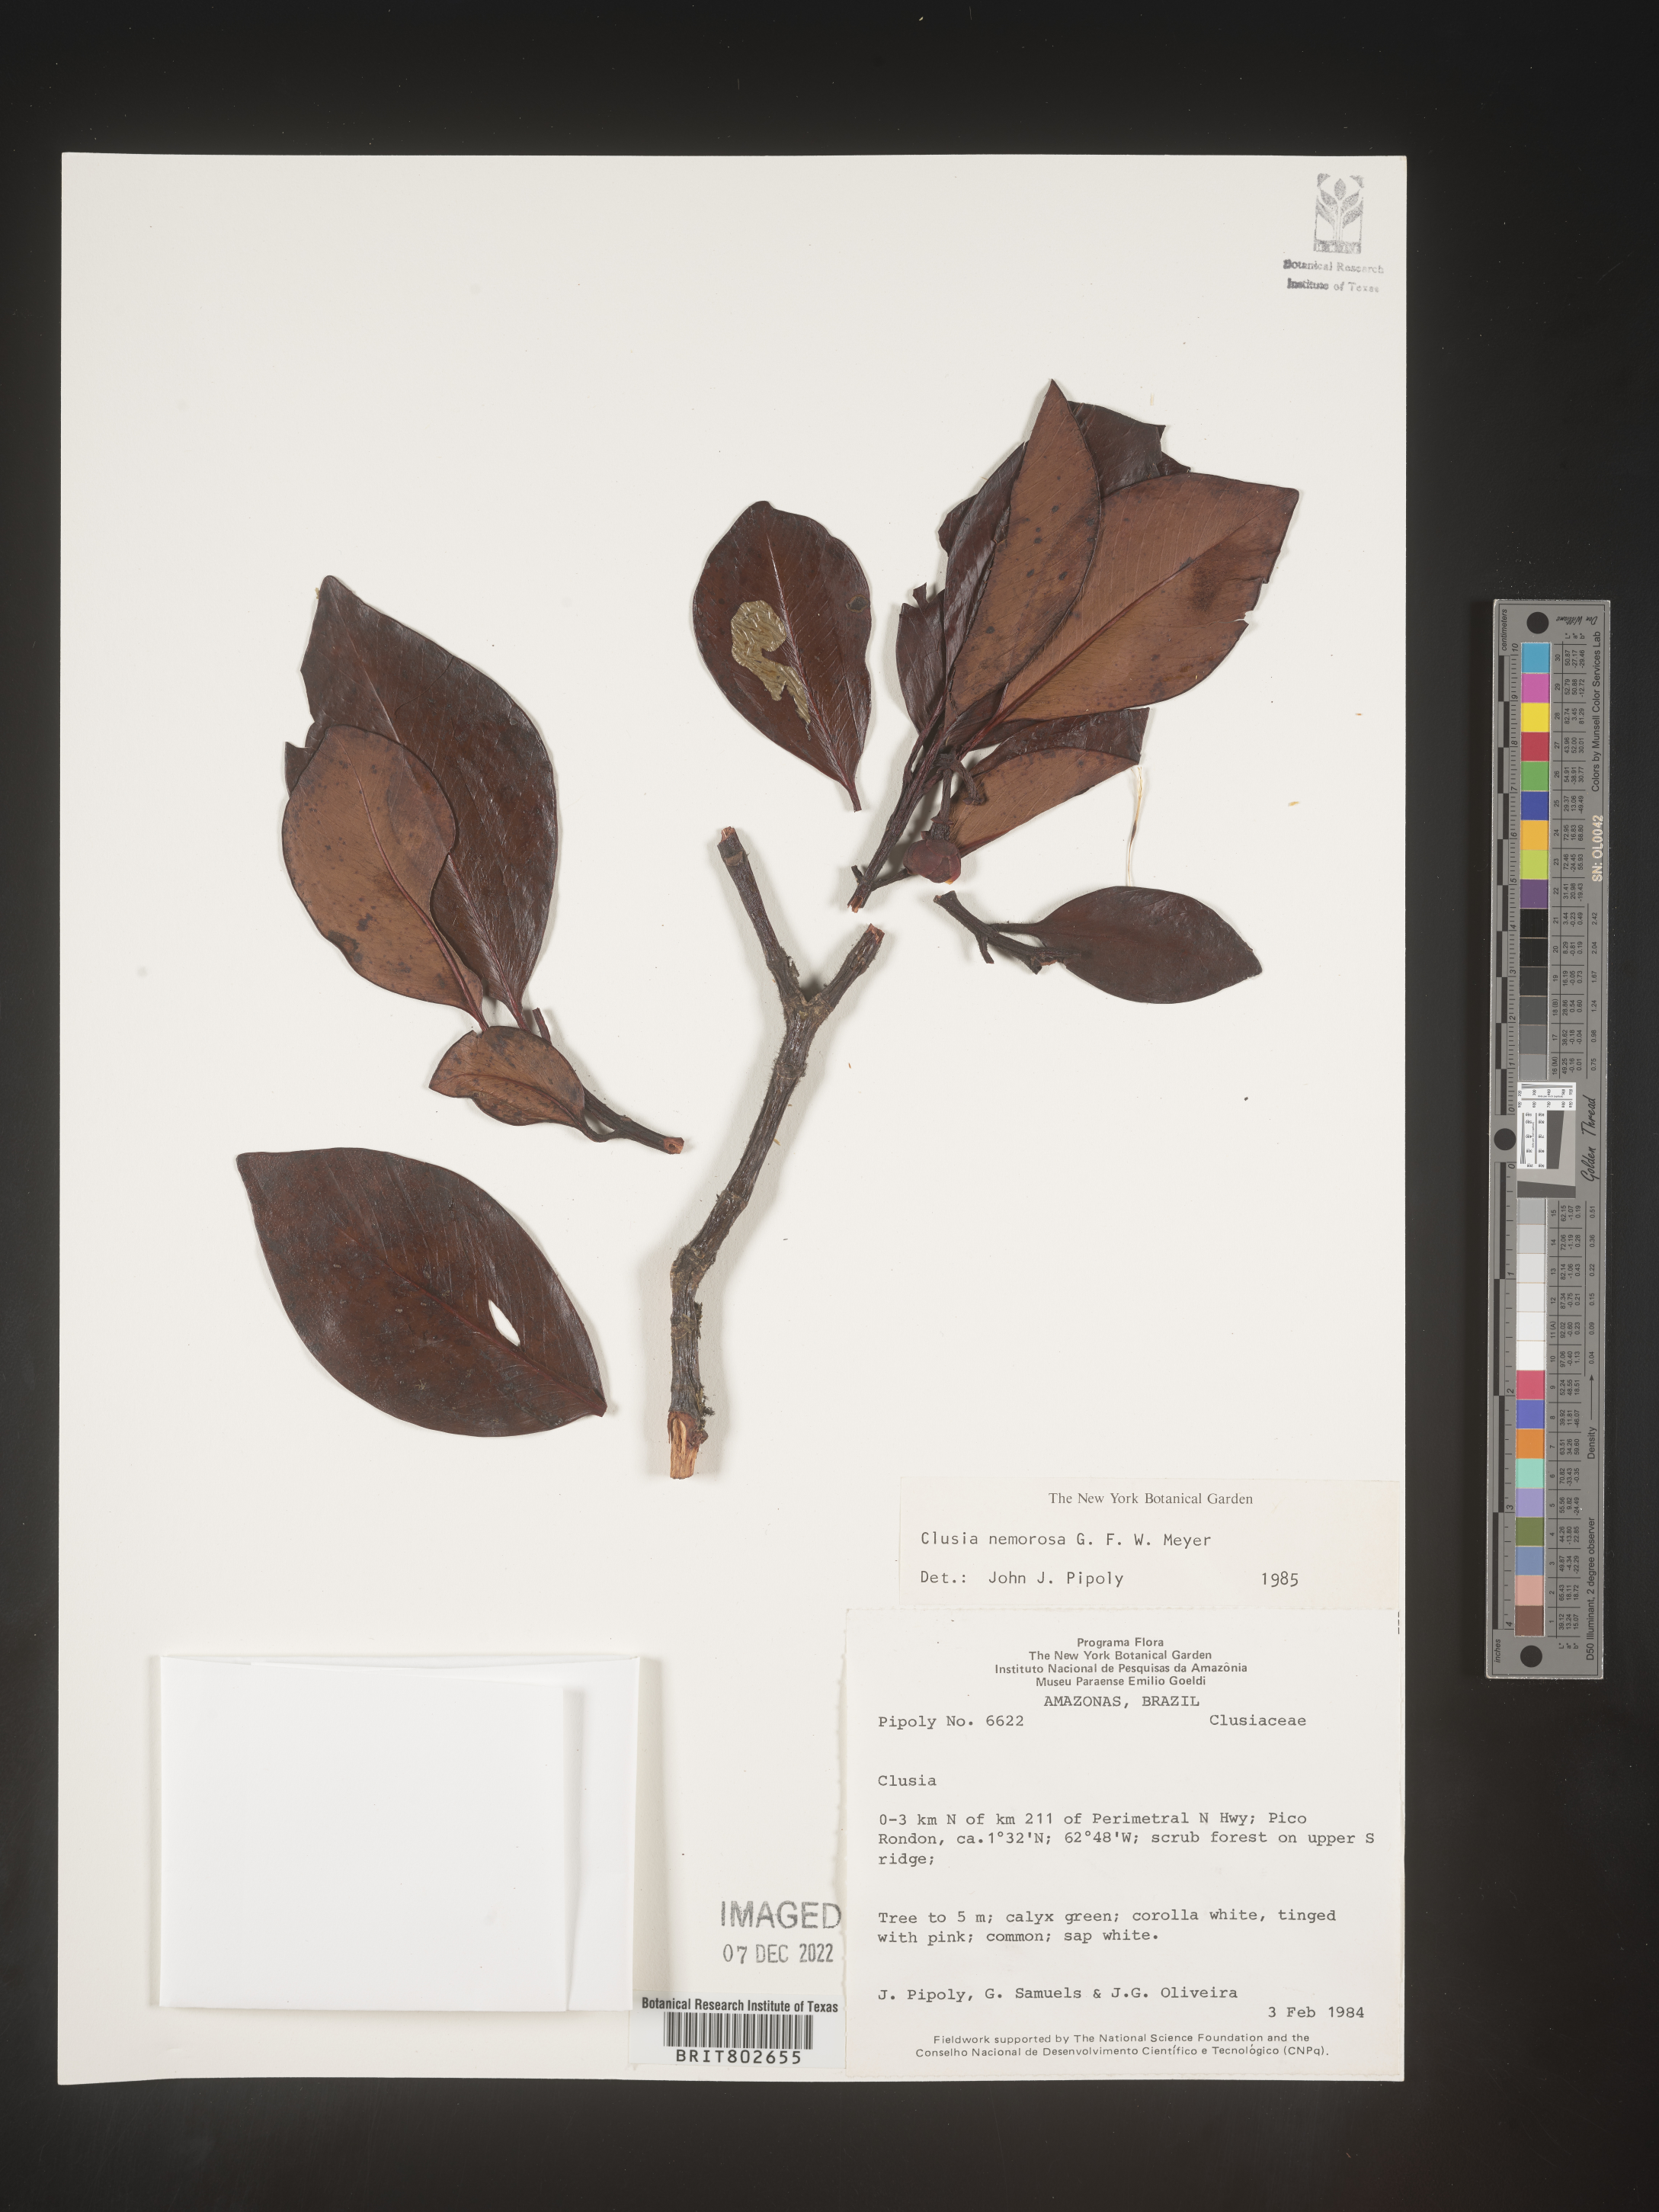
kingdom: Plantae
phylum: Tracheophyta
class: Magnoliopsida
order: Malpighiales
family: Clusiaceae
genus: Clusia
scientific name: Clusia nemorosa
